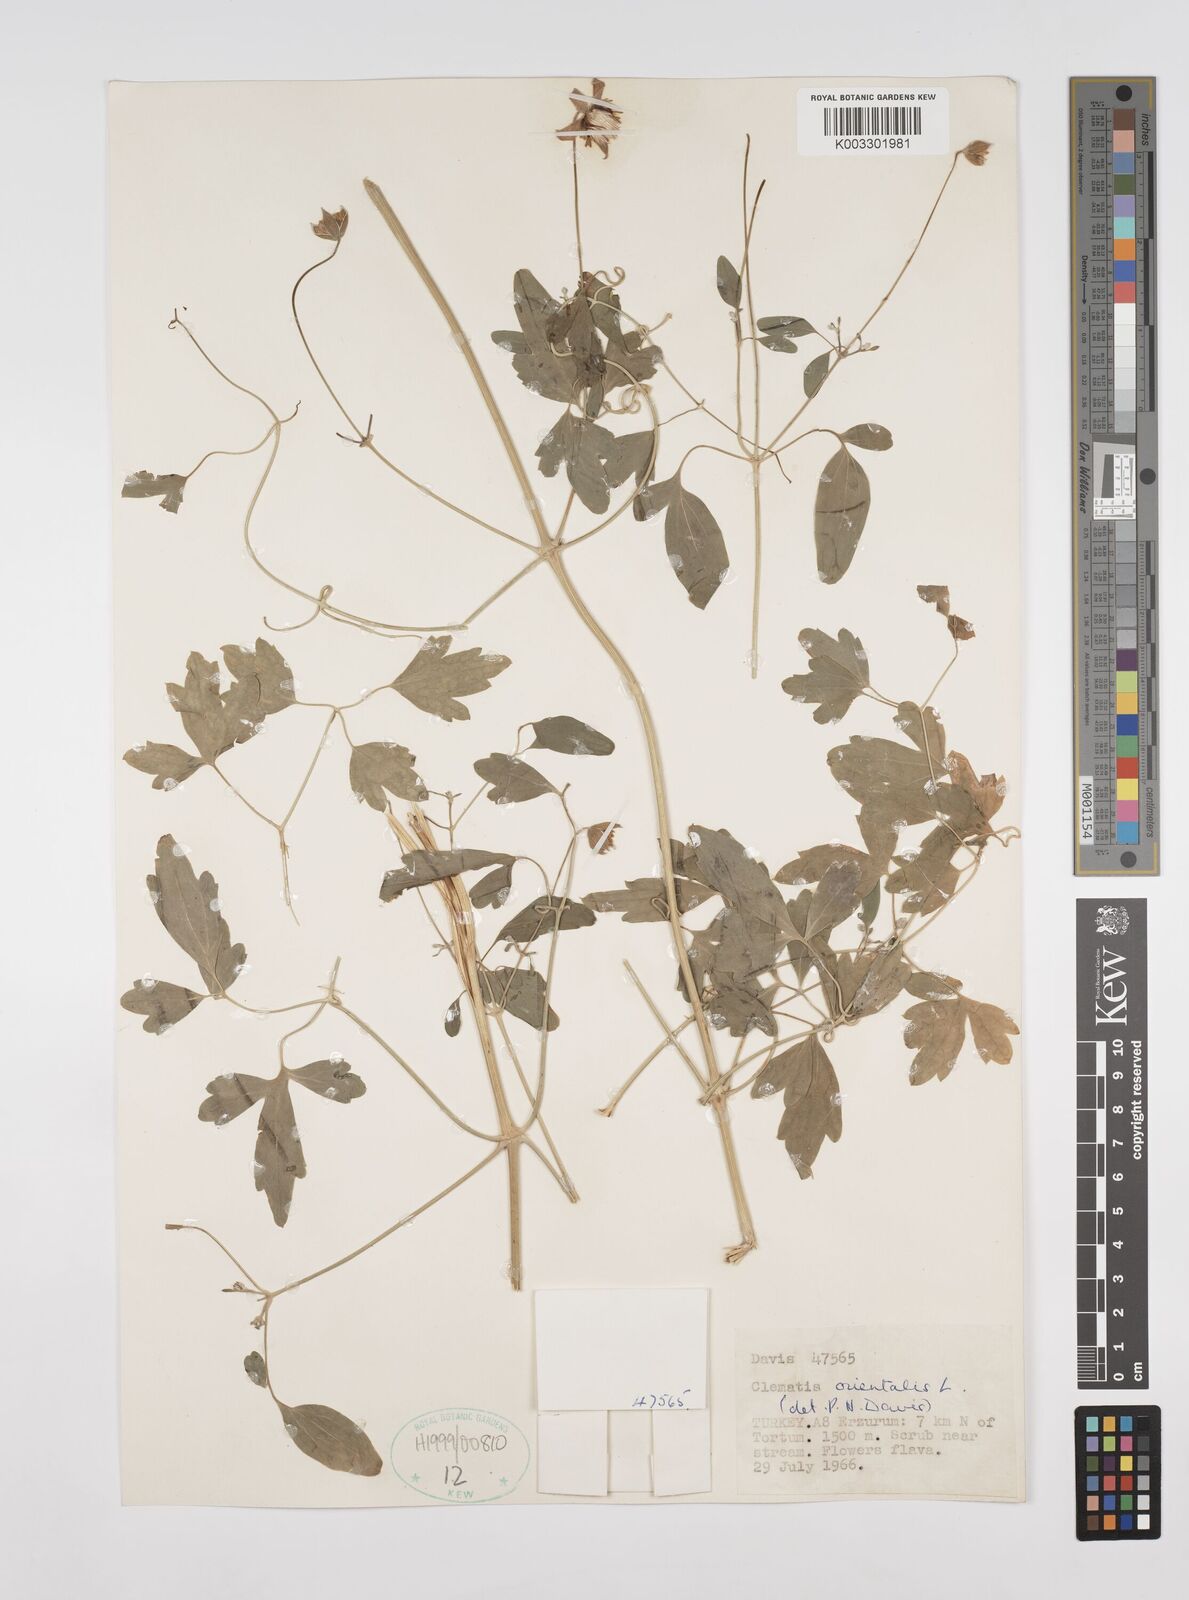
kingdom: Plantae
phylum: Tracheophyta
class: Magnoliopsida
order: Ranunculales
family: Ranunculaceae
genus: Clematis
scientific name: Clematis orientalis
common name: Oriental virgin's-bower
